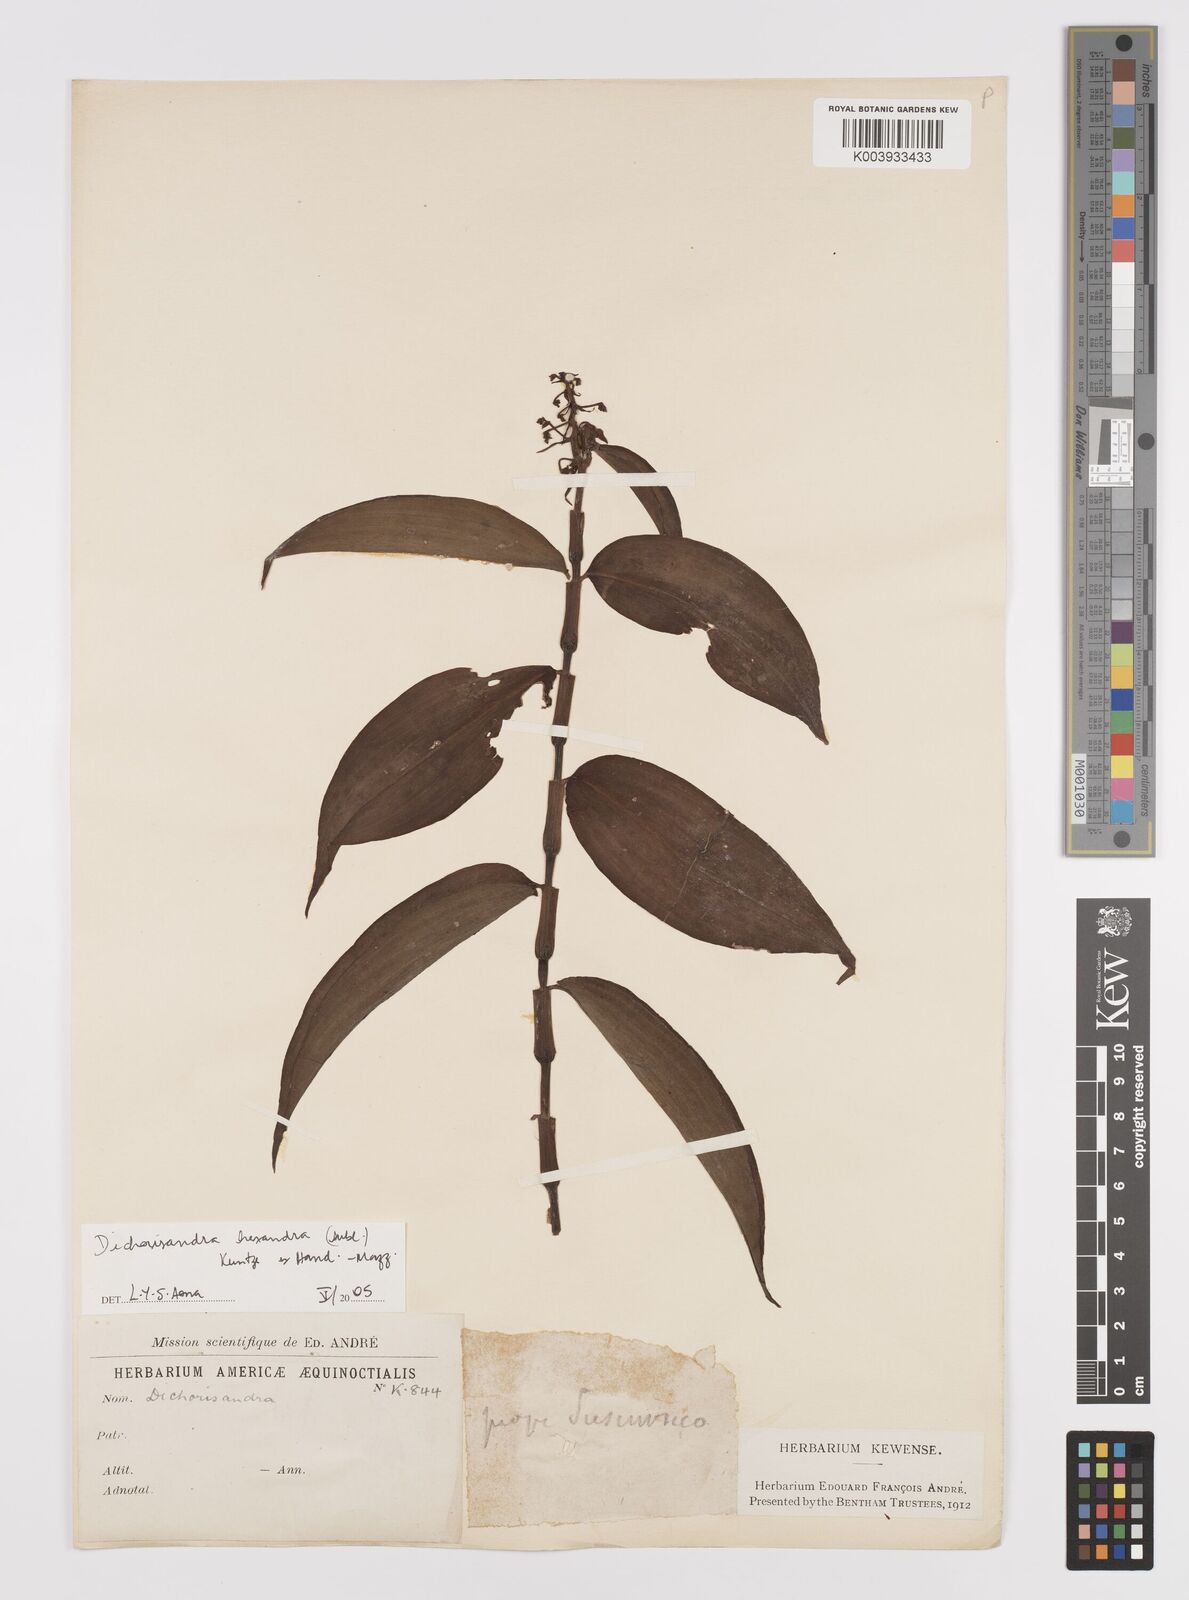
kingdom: Plantae
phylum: Tracheophyta
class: Liliopsida
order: Commelinales
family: Commelinaceae
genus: Dichorisandra
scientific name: Dichorisandra hexandra
